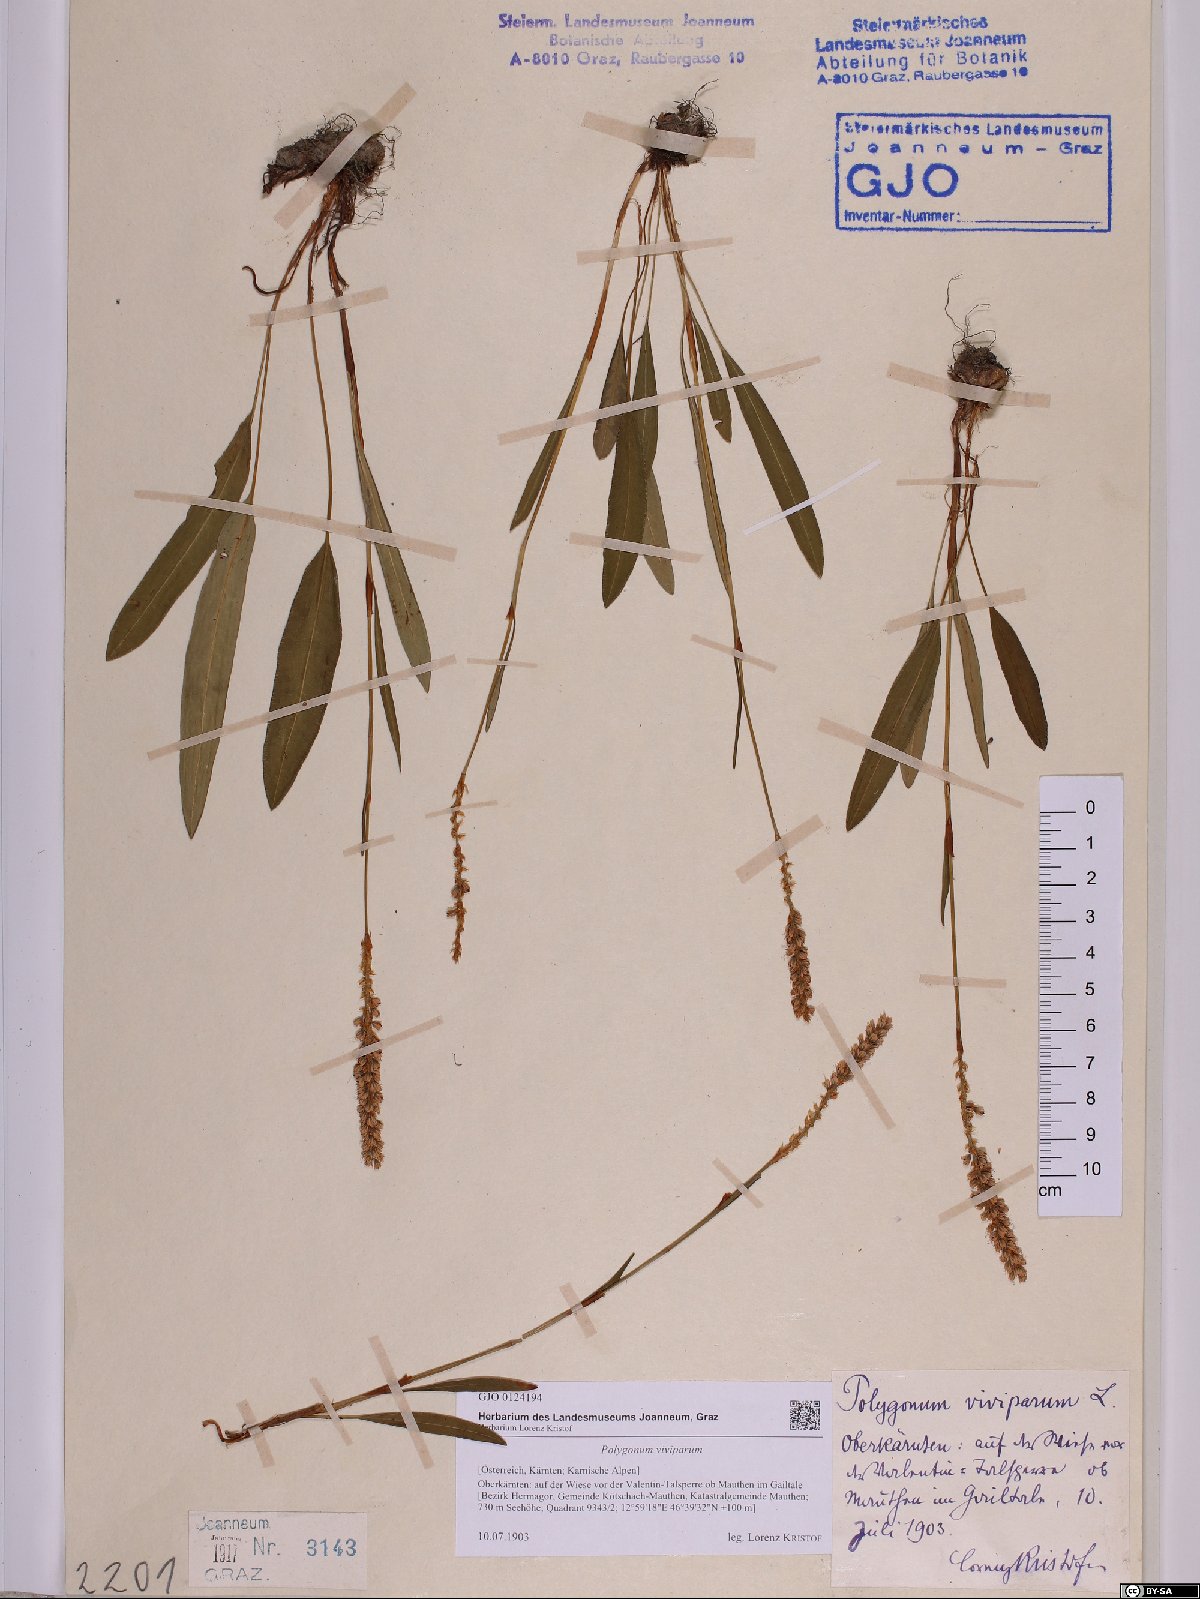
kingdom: Plantae
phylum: Tracheophyta
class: Magnoliopsida
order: Caryophyllales
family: Polygonaceae
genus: Bistorta
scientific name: Bistorta vivipara
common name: Alpine bistort
